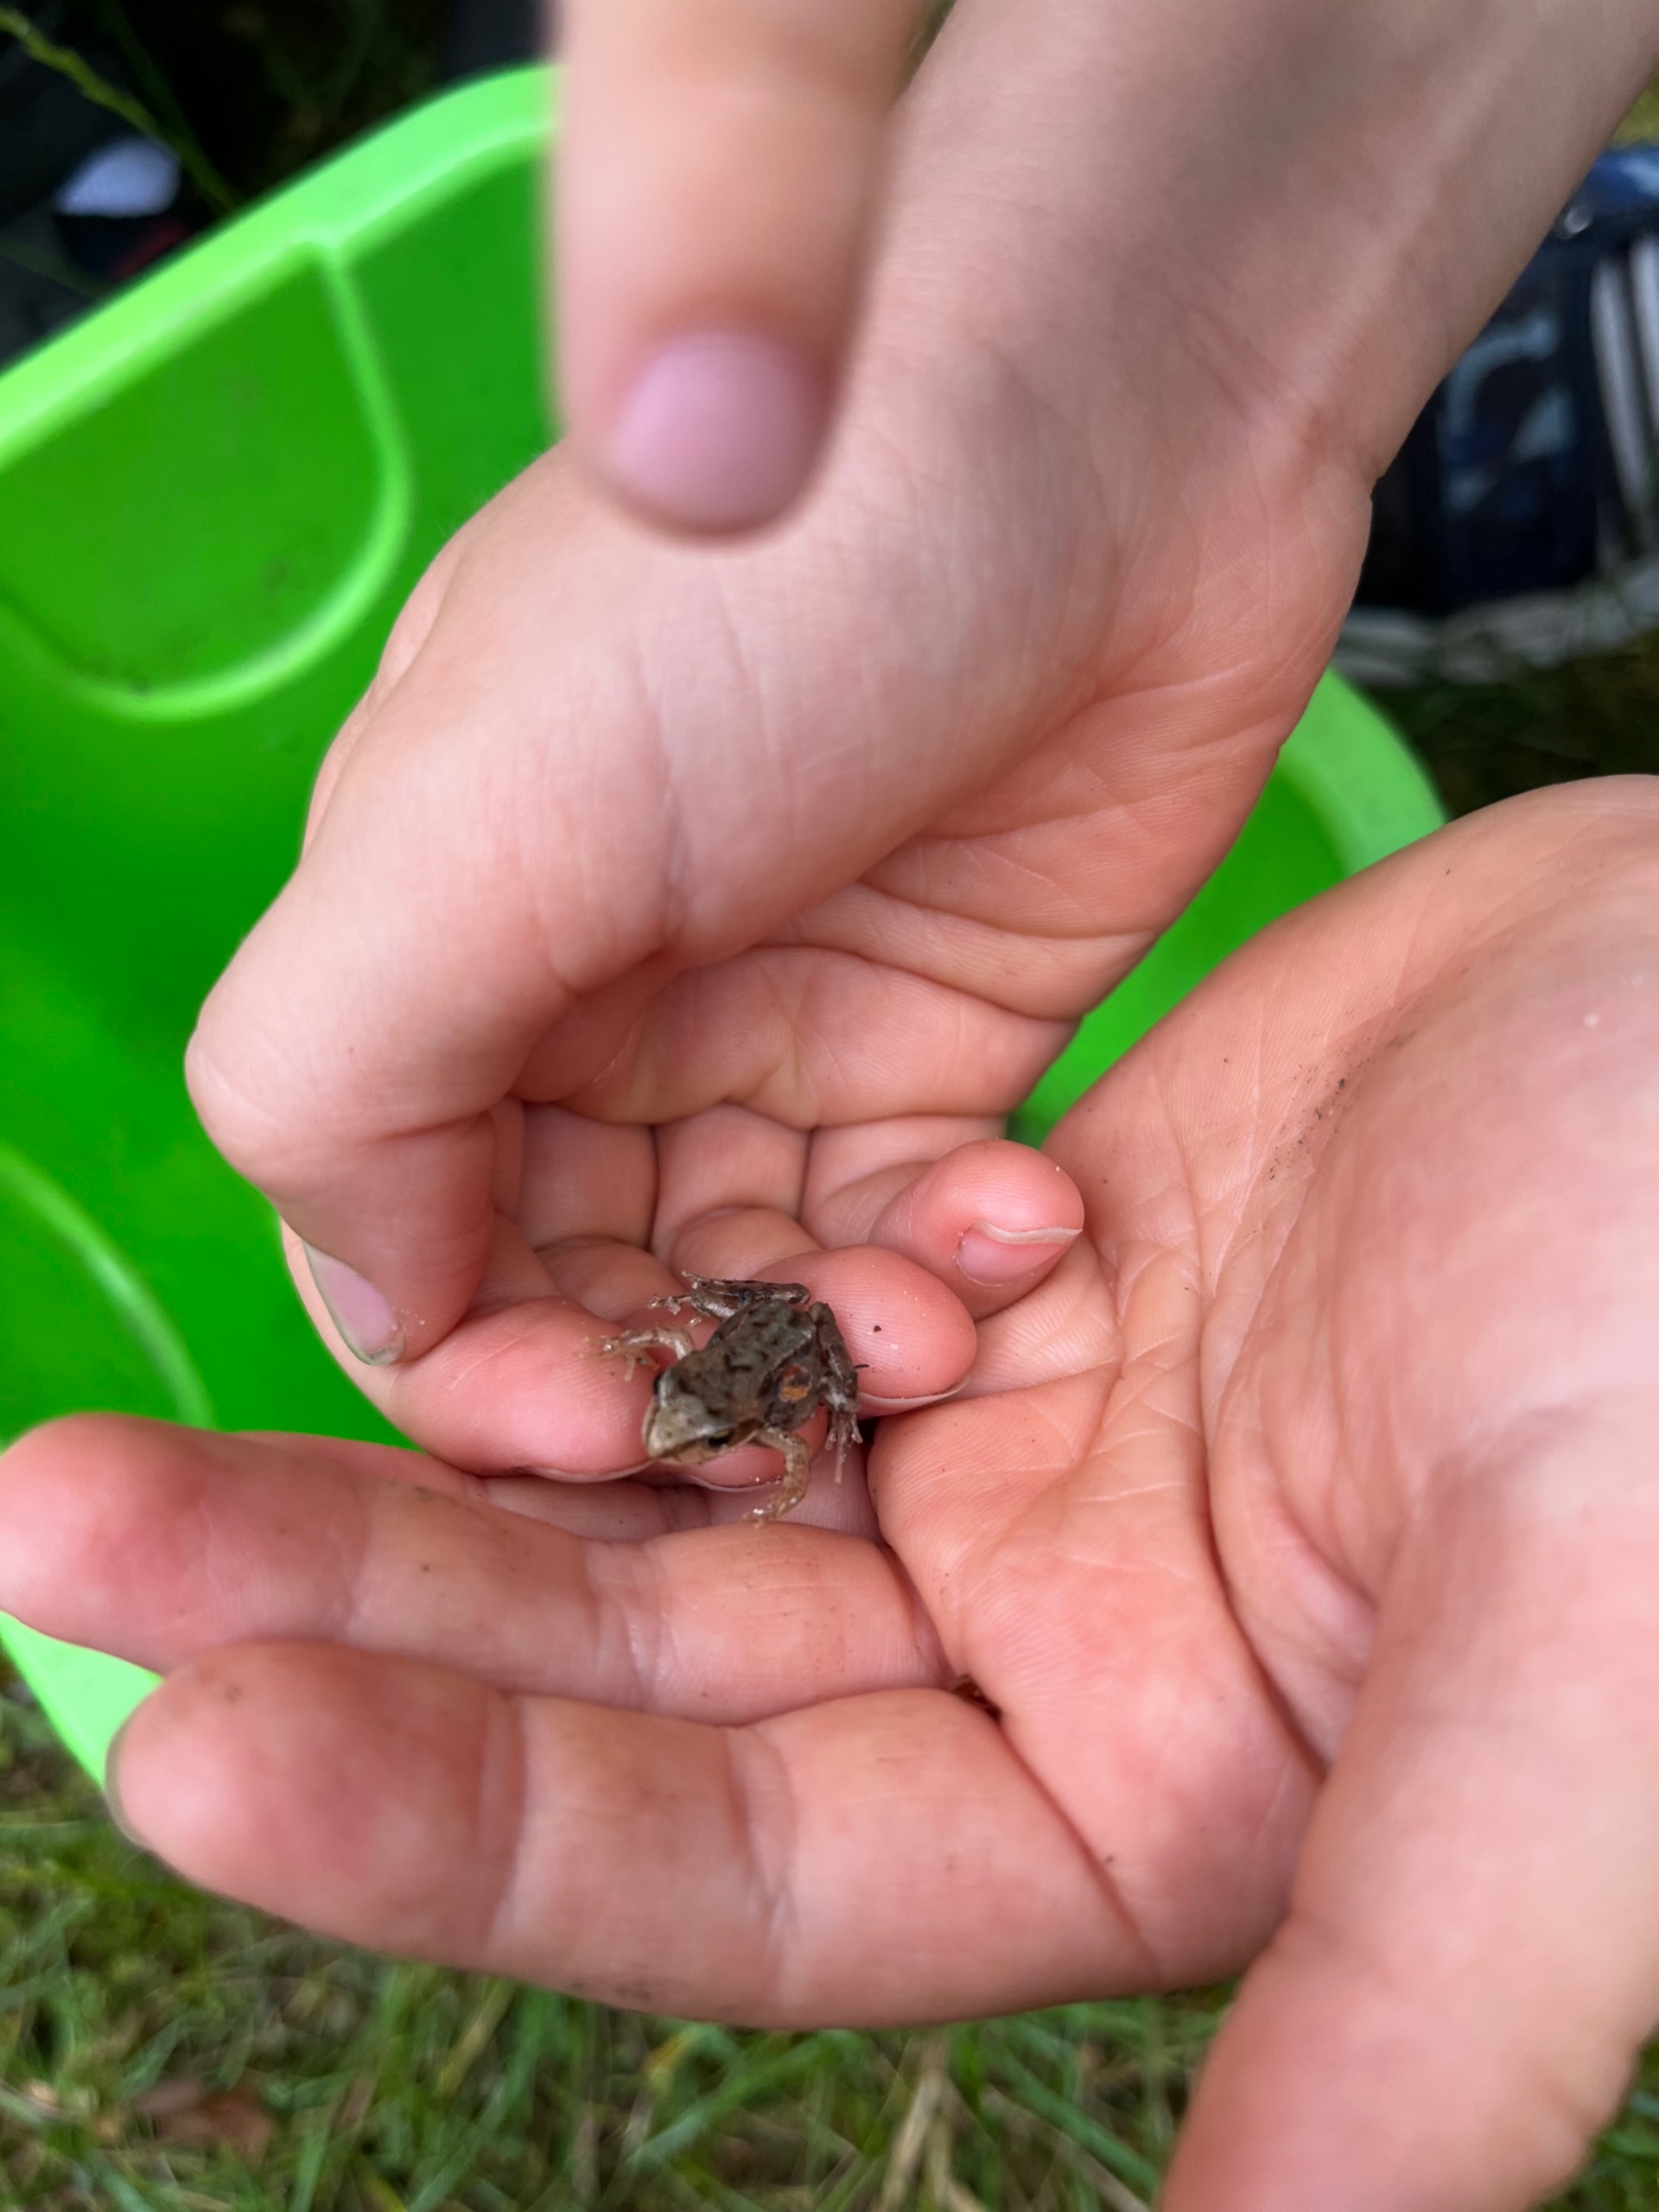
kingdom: Animalia
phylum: Chordata
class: Amphibia
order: Anura
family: Ranidae
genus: Rana
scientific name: Rana temporaria
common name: Butsnudet frø
